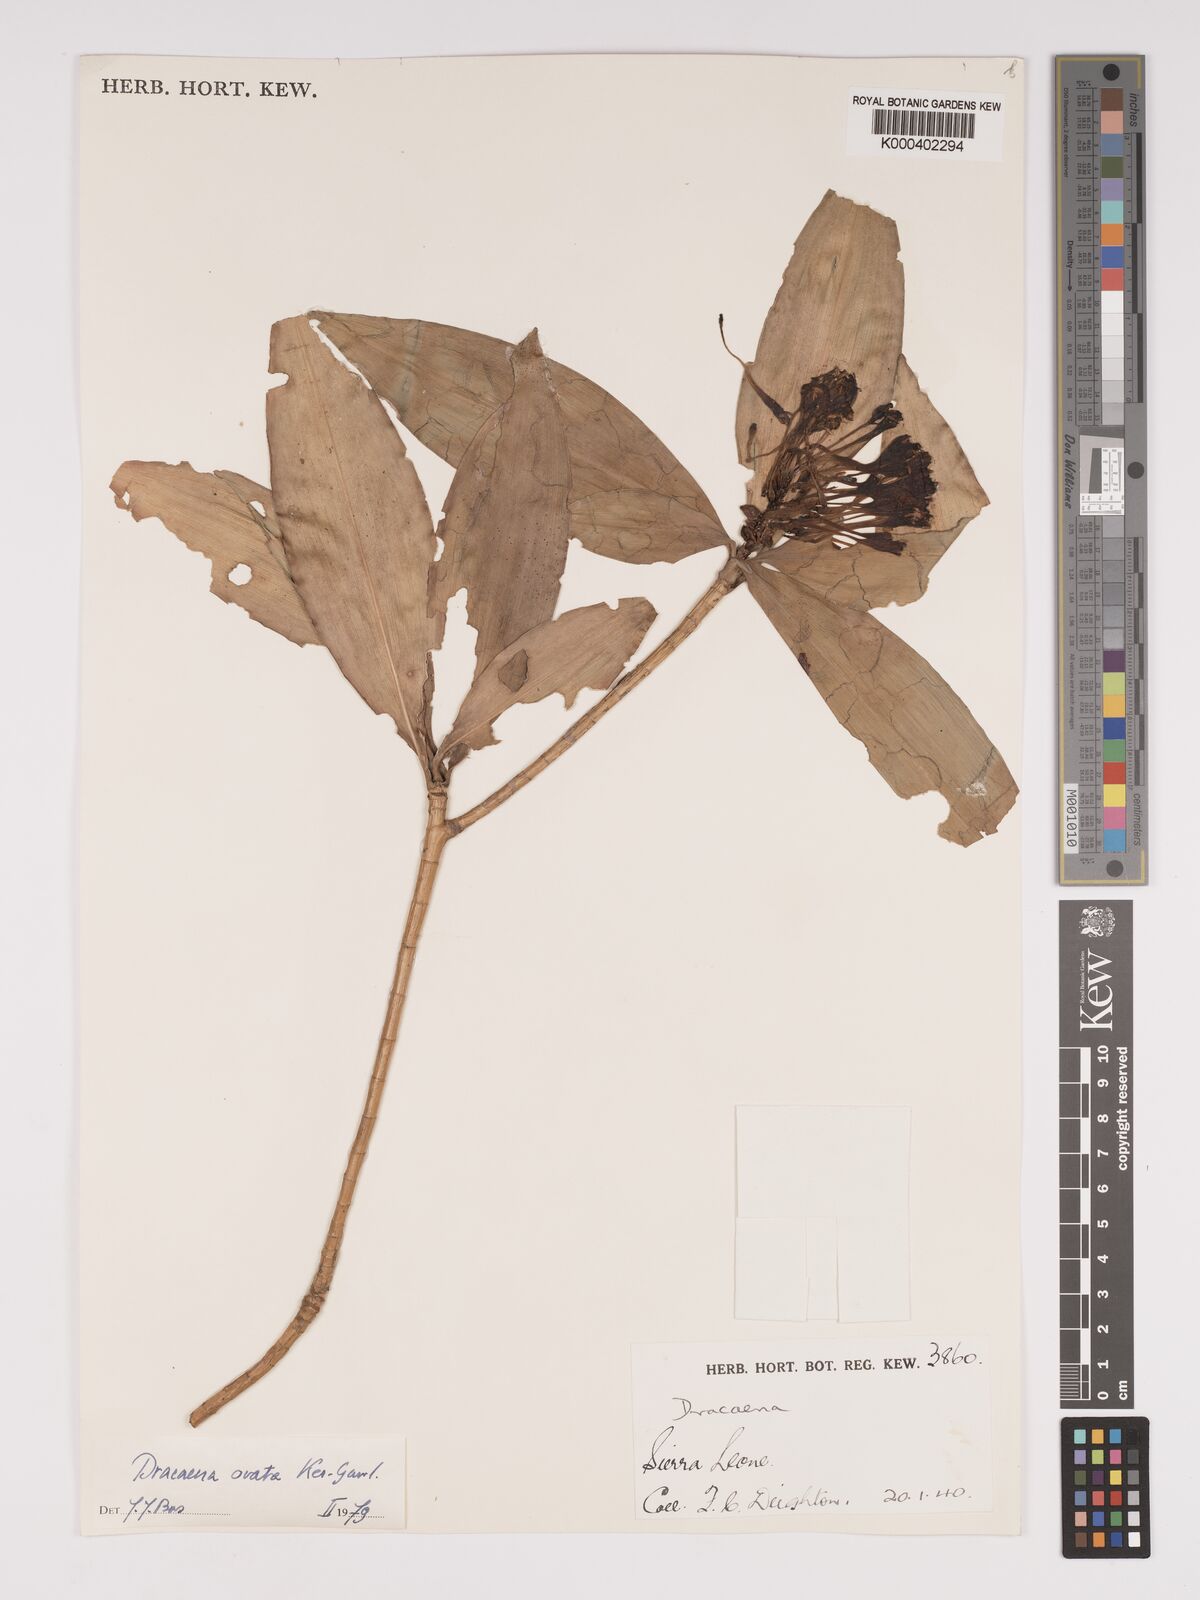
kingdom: Plantae
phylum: Tracheophyta
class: Liliopsida
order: Asparagales
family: Asparagaceae
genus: Dracaena
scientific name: Dracaena ovata
